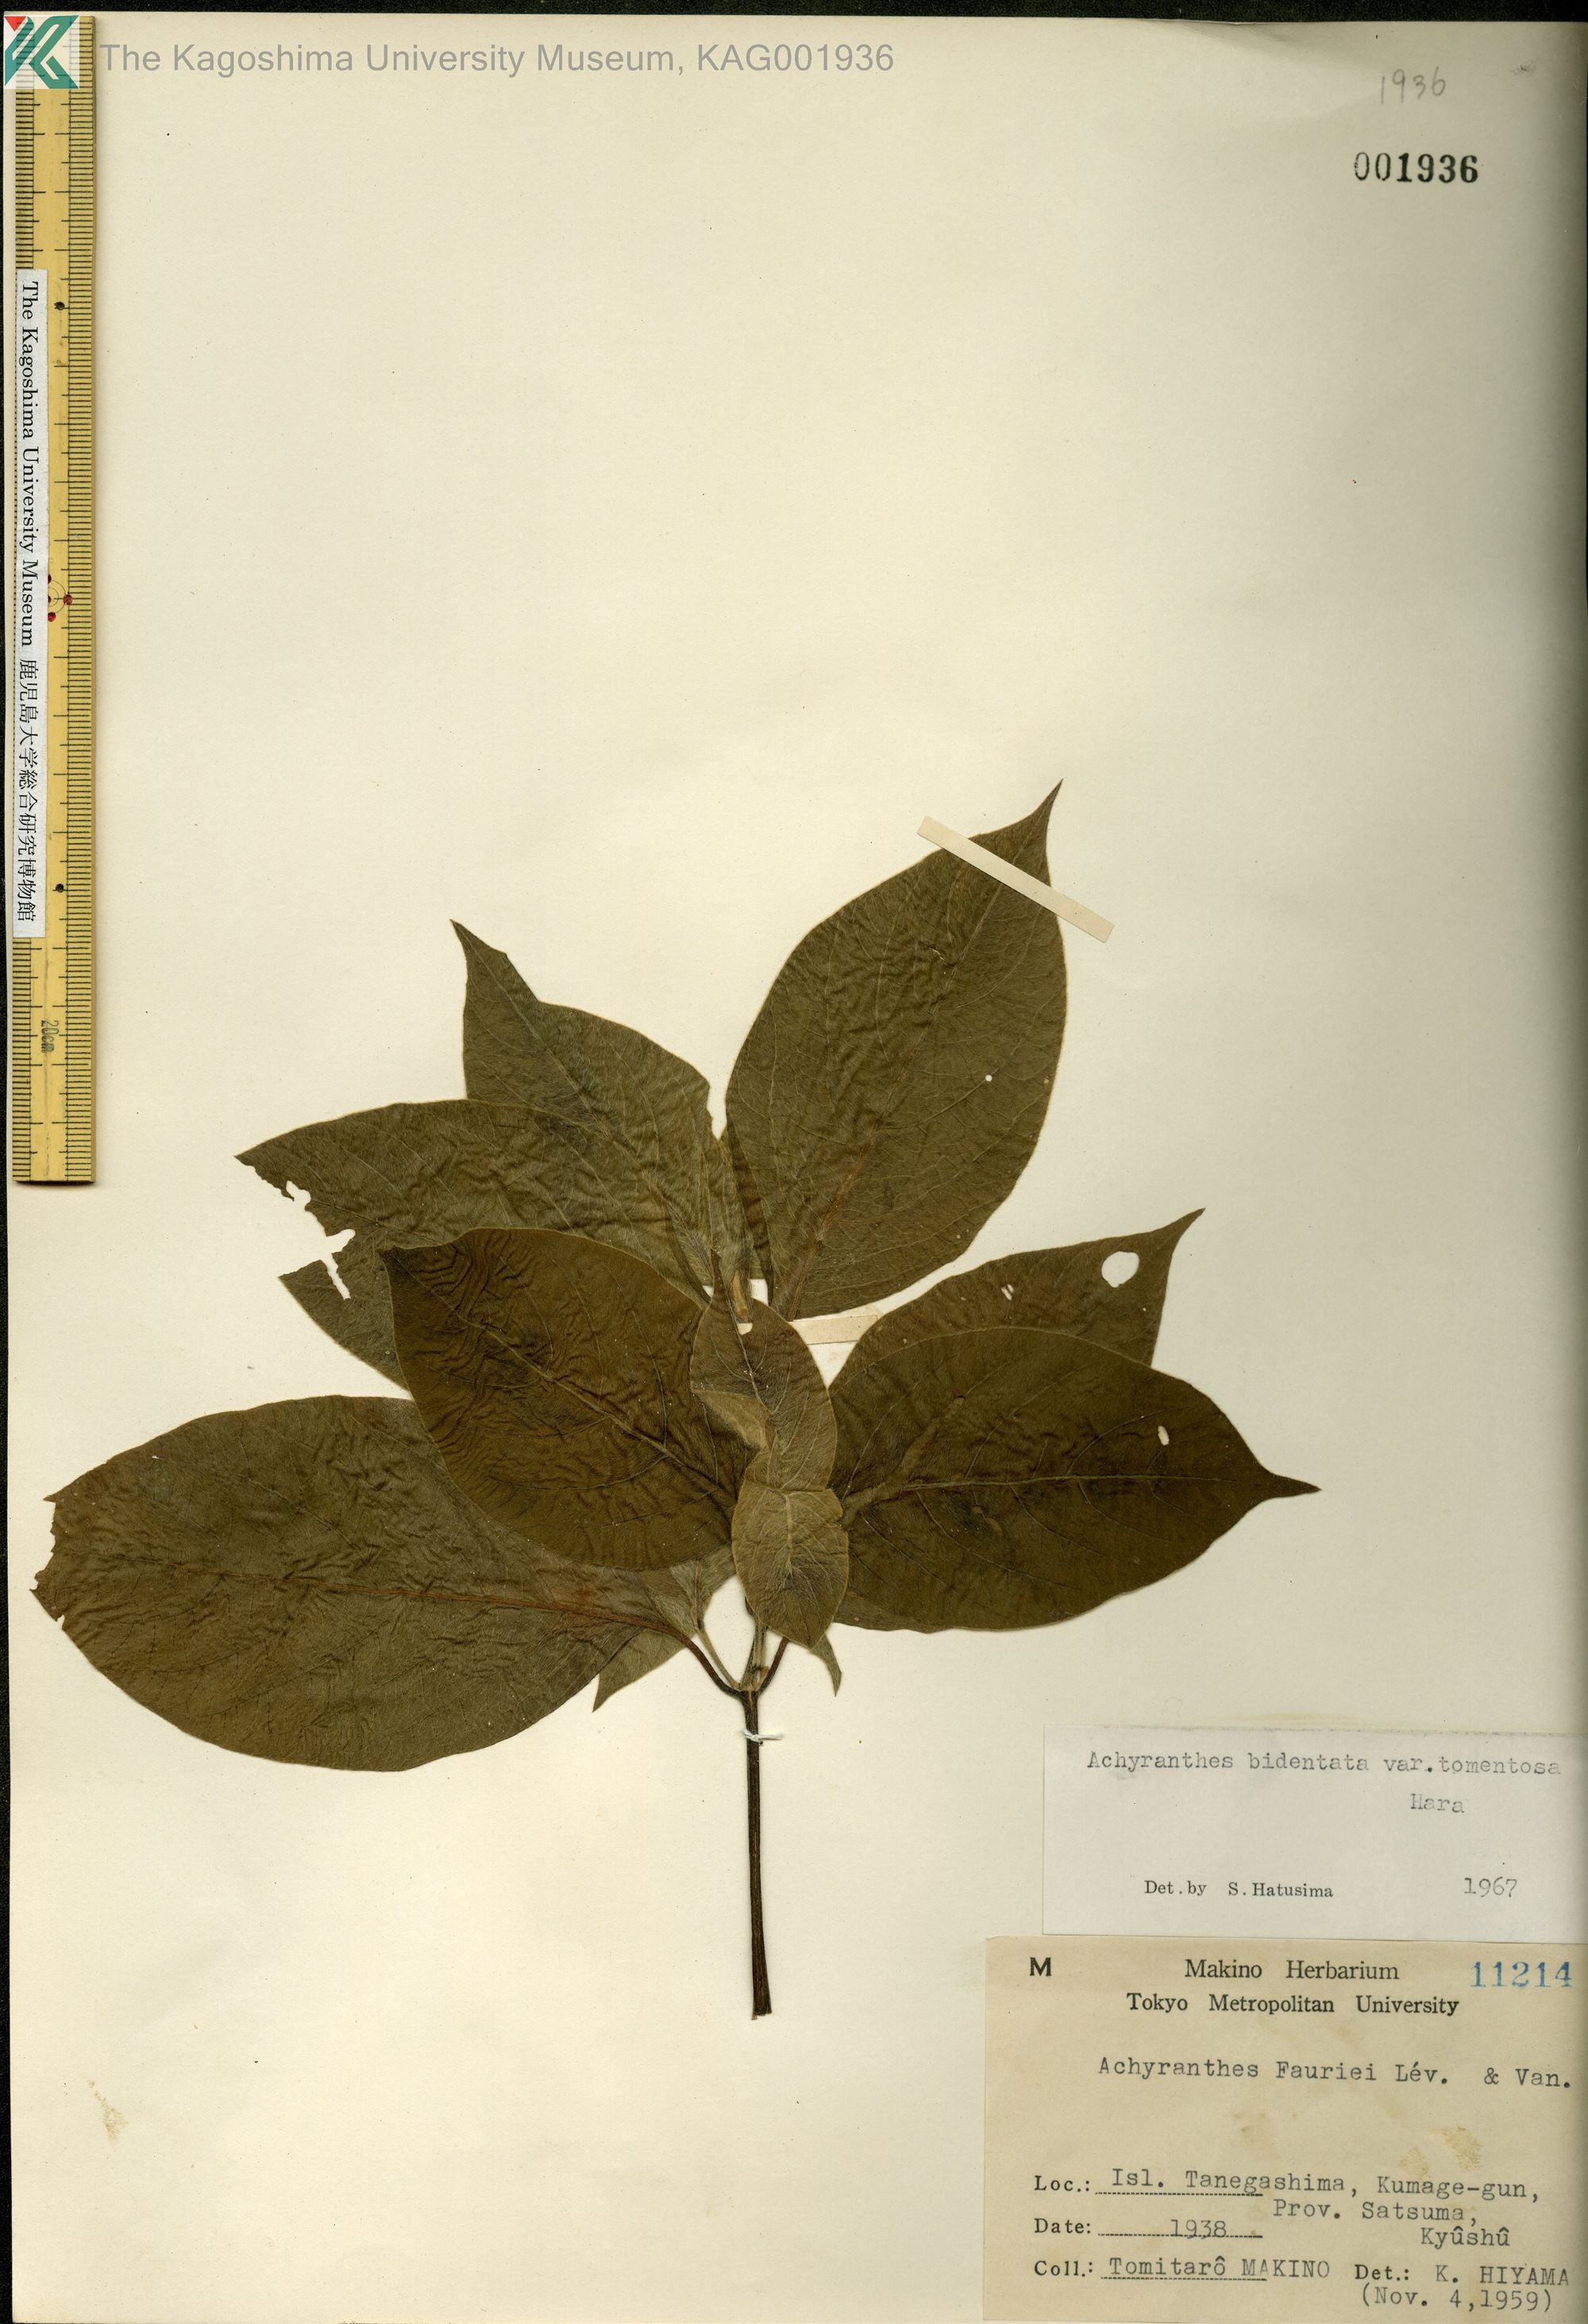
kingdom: Plantae
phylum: Tracheophyta
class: Magnoliopsida
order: Caryophyllales
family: Amaranthaceae
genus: Achyranthes
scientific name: Achyranthes bidentata
